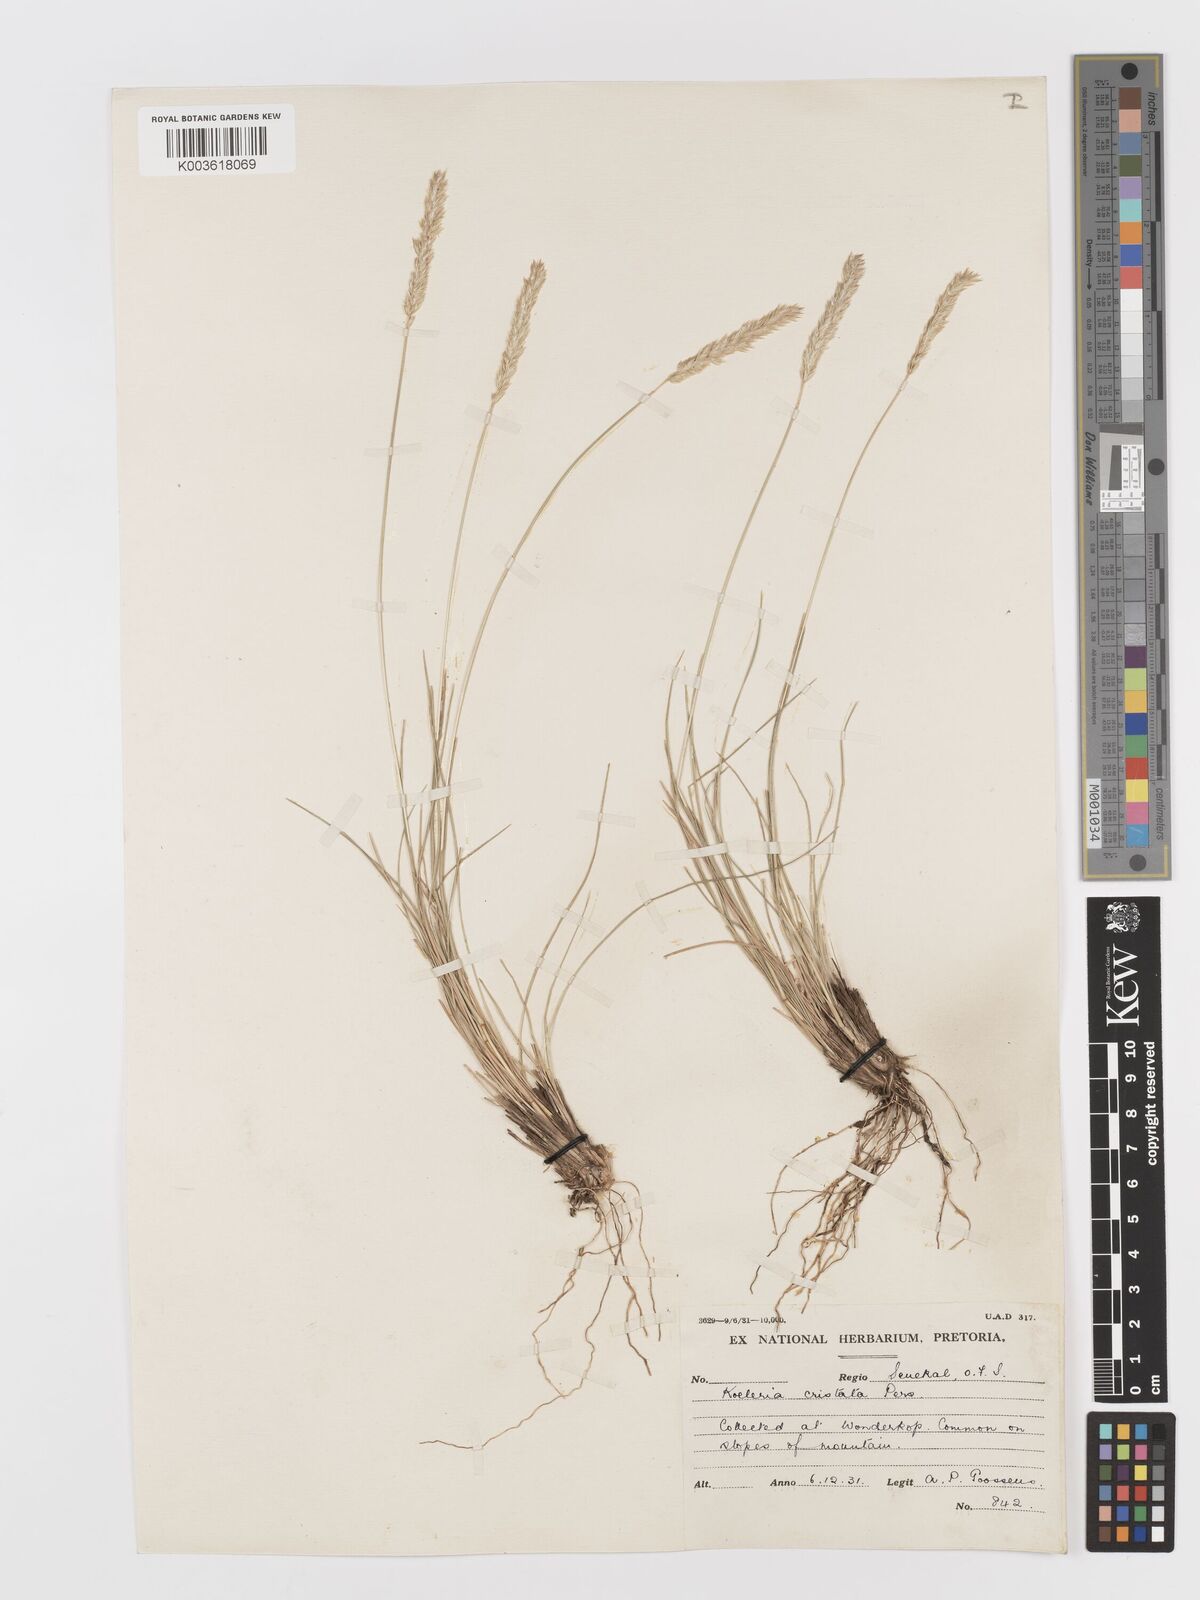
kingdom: Plantae
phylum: Tracheophyta
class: Liliopsida
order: Poales
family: Poaceae
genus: Koeleria
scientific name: Koeleria capensis
